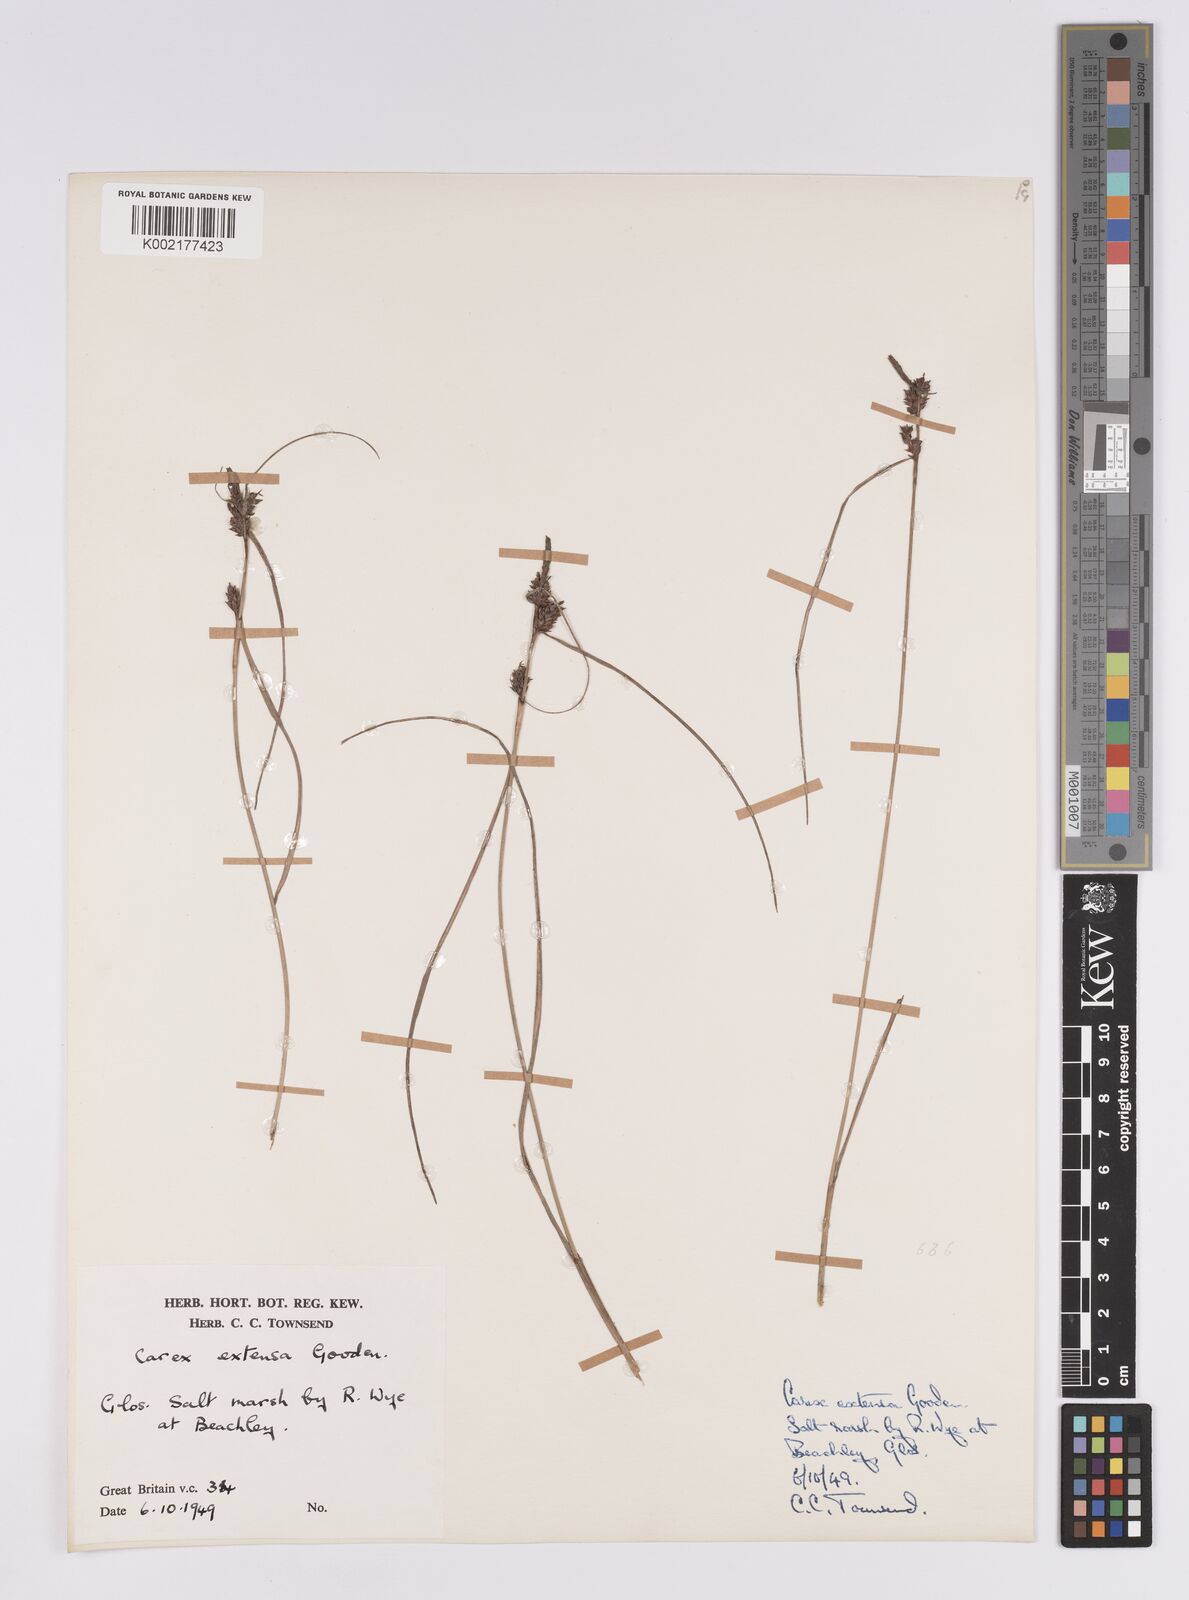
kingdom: Plantae
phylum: Tracheophyta
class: Liliopsida
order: Poales
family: Cyperaceae
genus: Carex
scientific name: Carex extensa
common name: Long-bracted sedge
